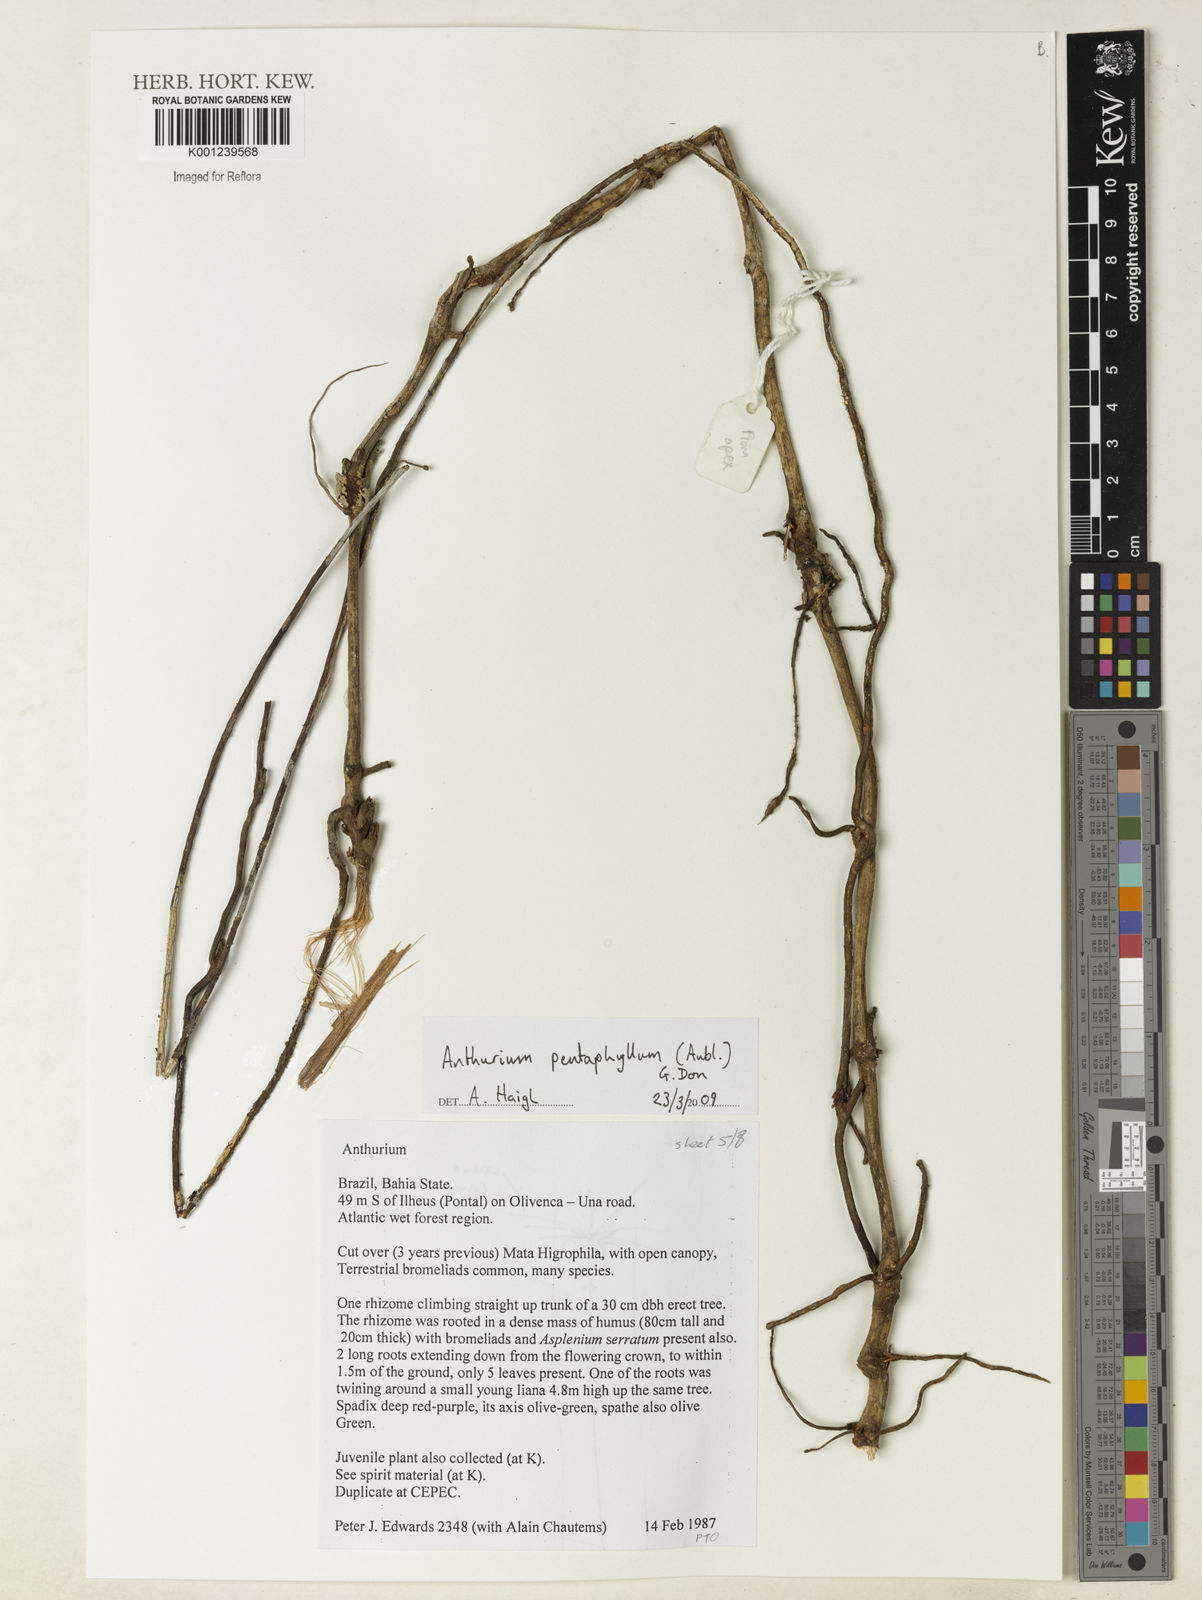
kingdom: Plantae
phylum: Tracheophyta
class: Liliopsida
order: Alismatales
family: Araceae
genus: Anthurium
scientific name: Anthurium pentaphyllum
